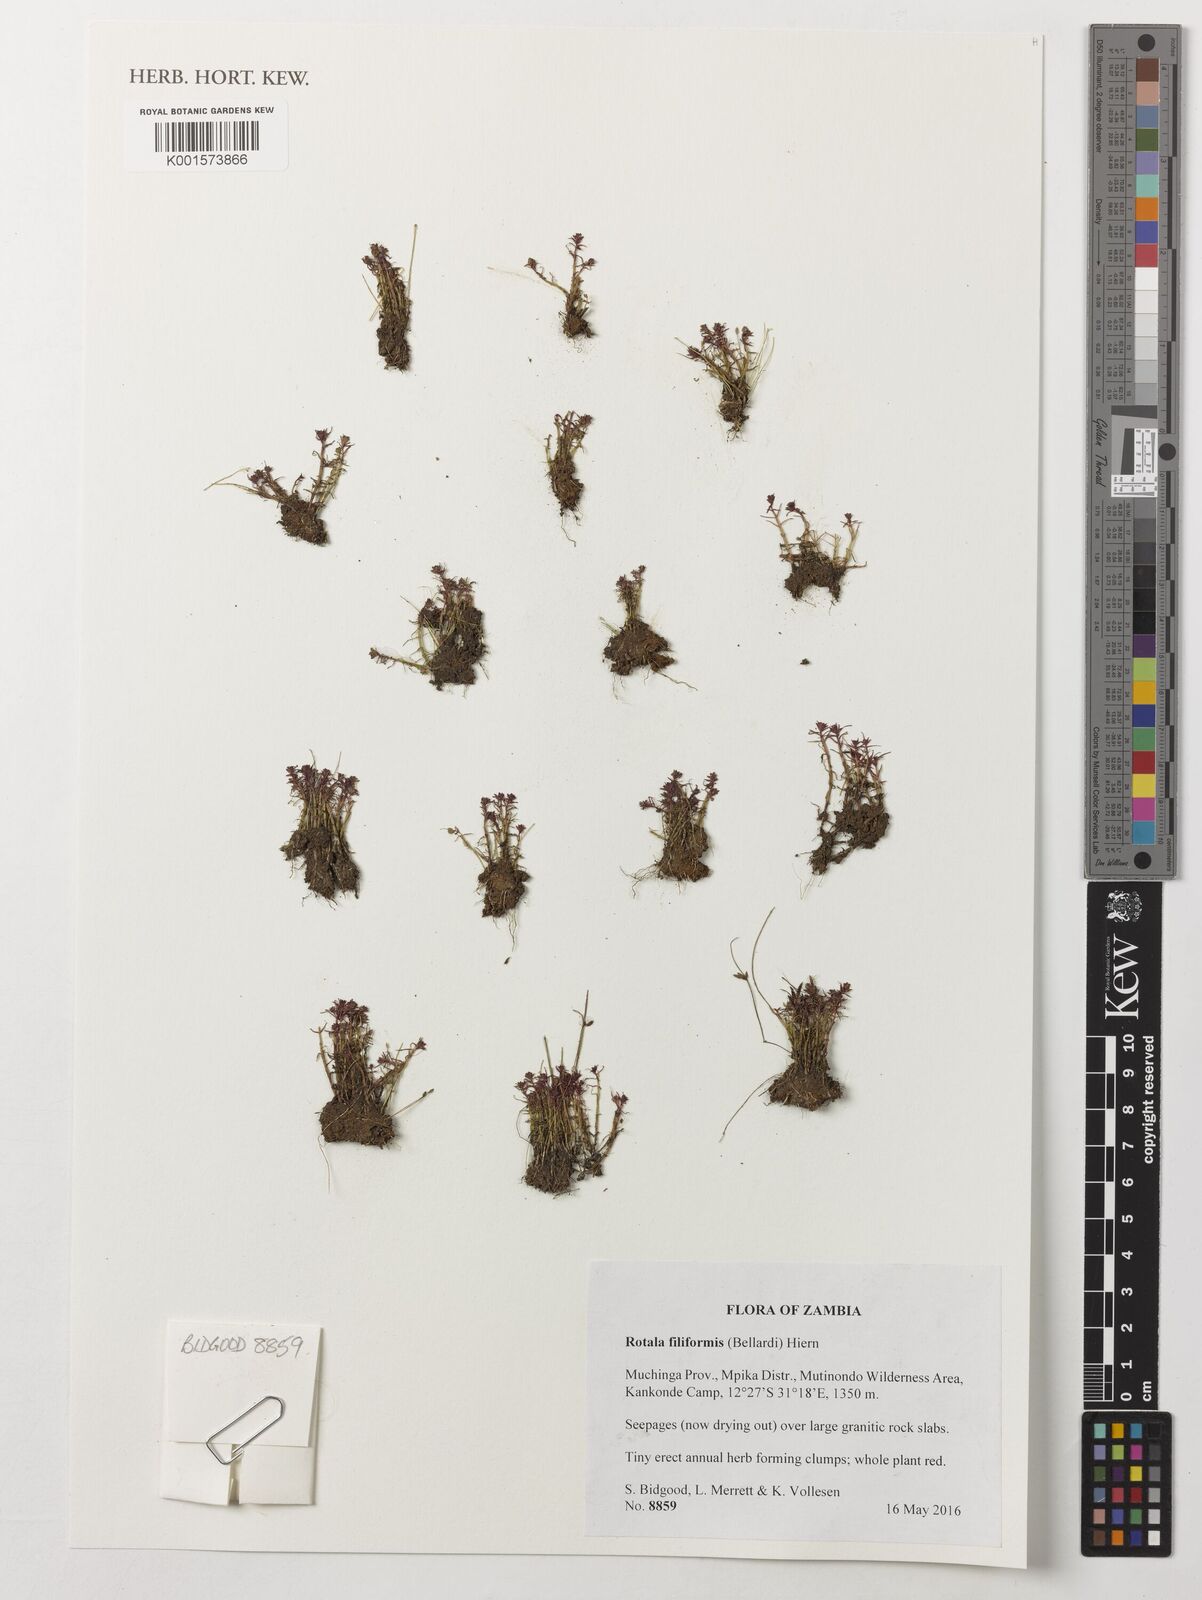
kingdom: Plantae
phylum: Tracheophyta
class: Magnoliopsida
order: Myrtales
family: Lythraceae
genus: Rotala
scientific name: Rotala filiformis
